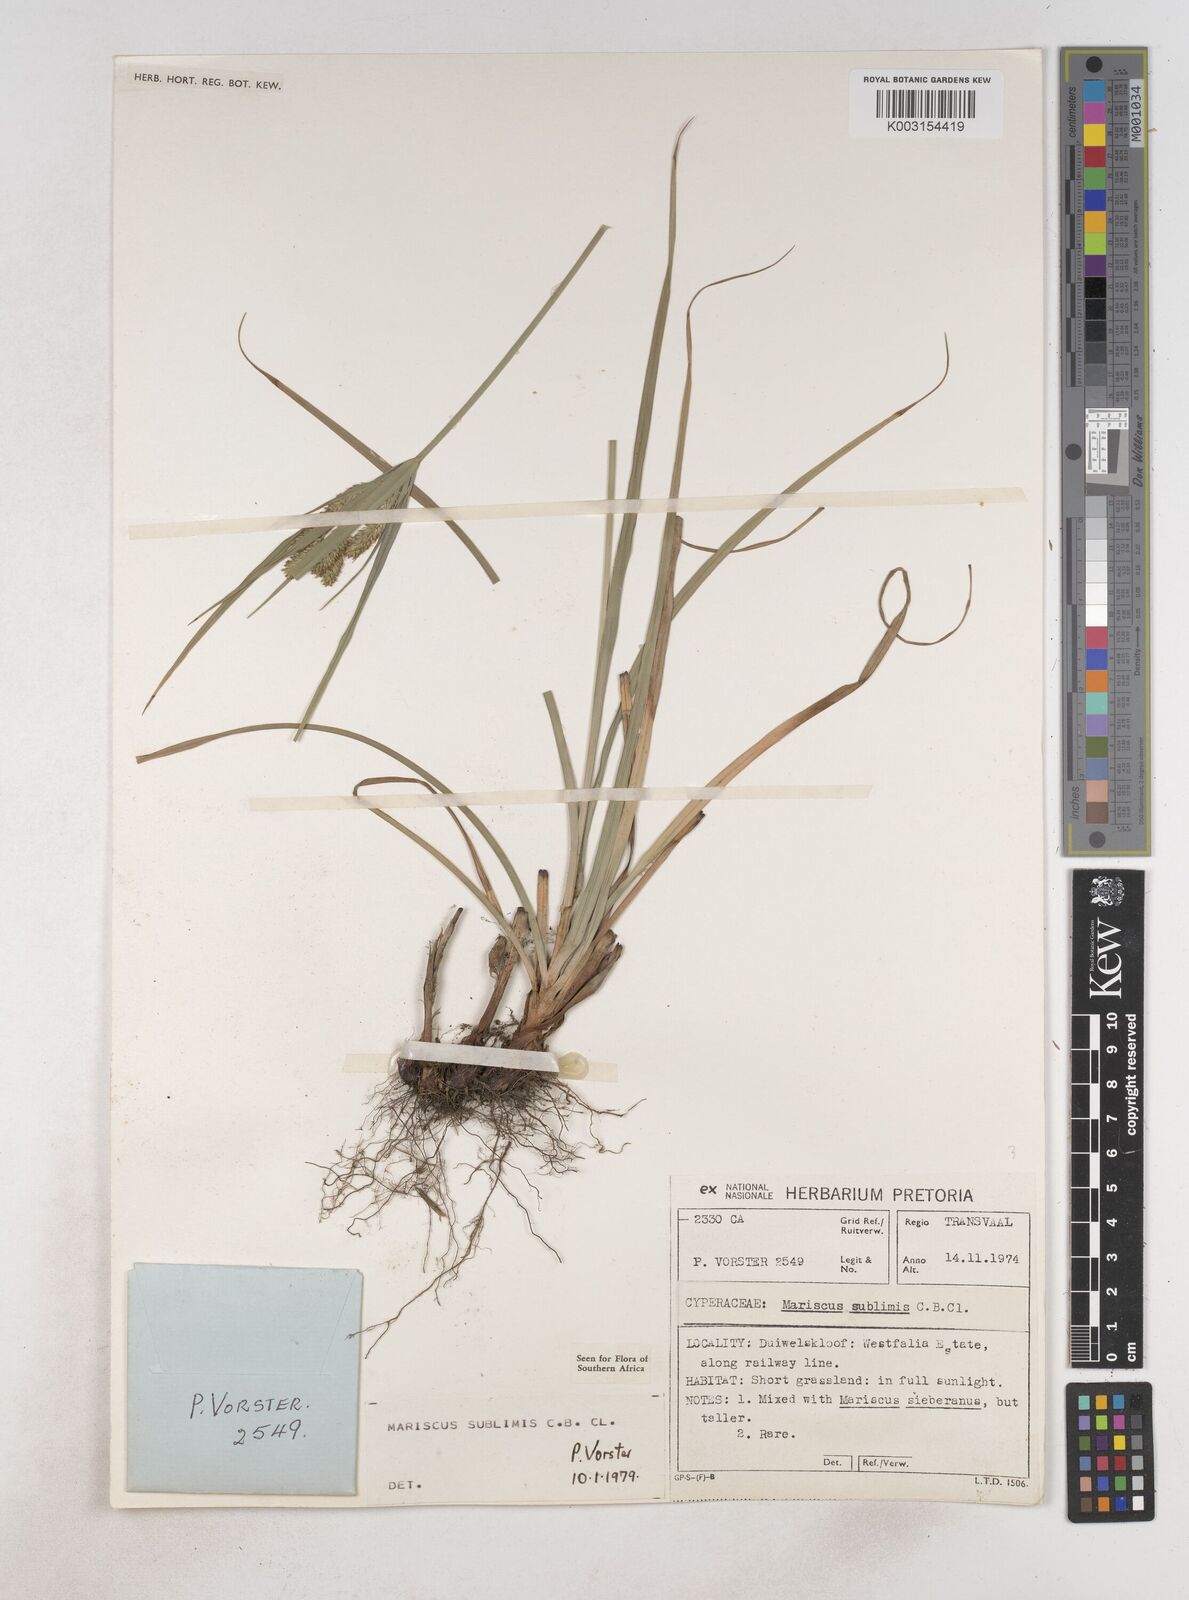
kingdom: Plantae
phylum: Tracheophyta
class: Liliopsida
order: Poales
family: Cyperaceae
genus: Cyperus
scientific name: Cyperus
